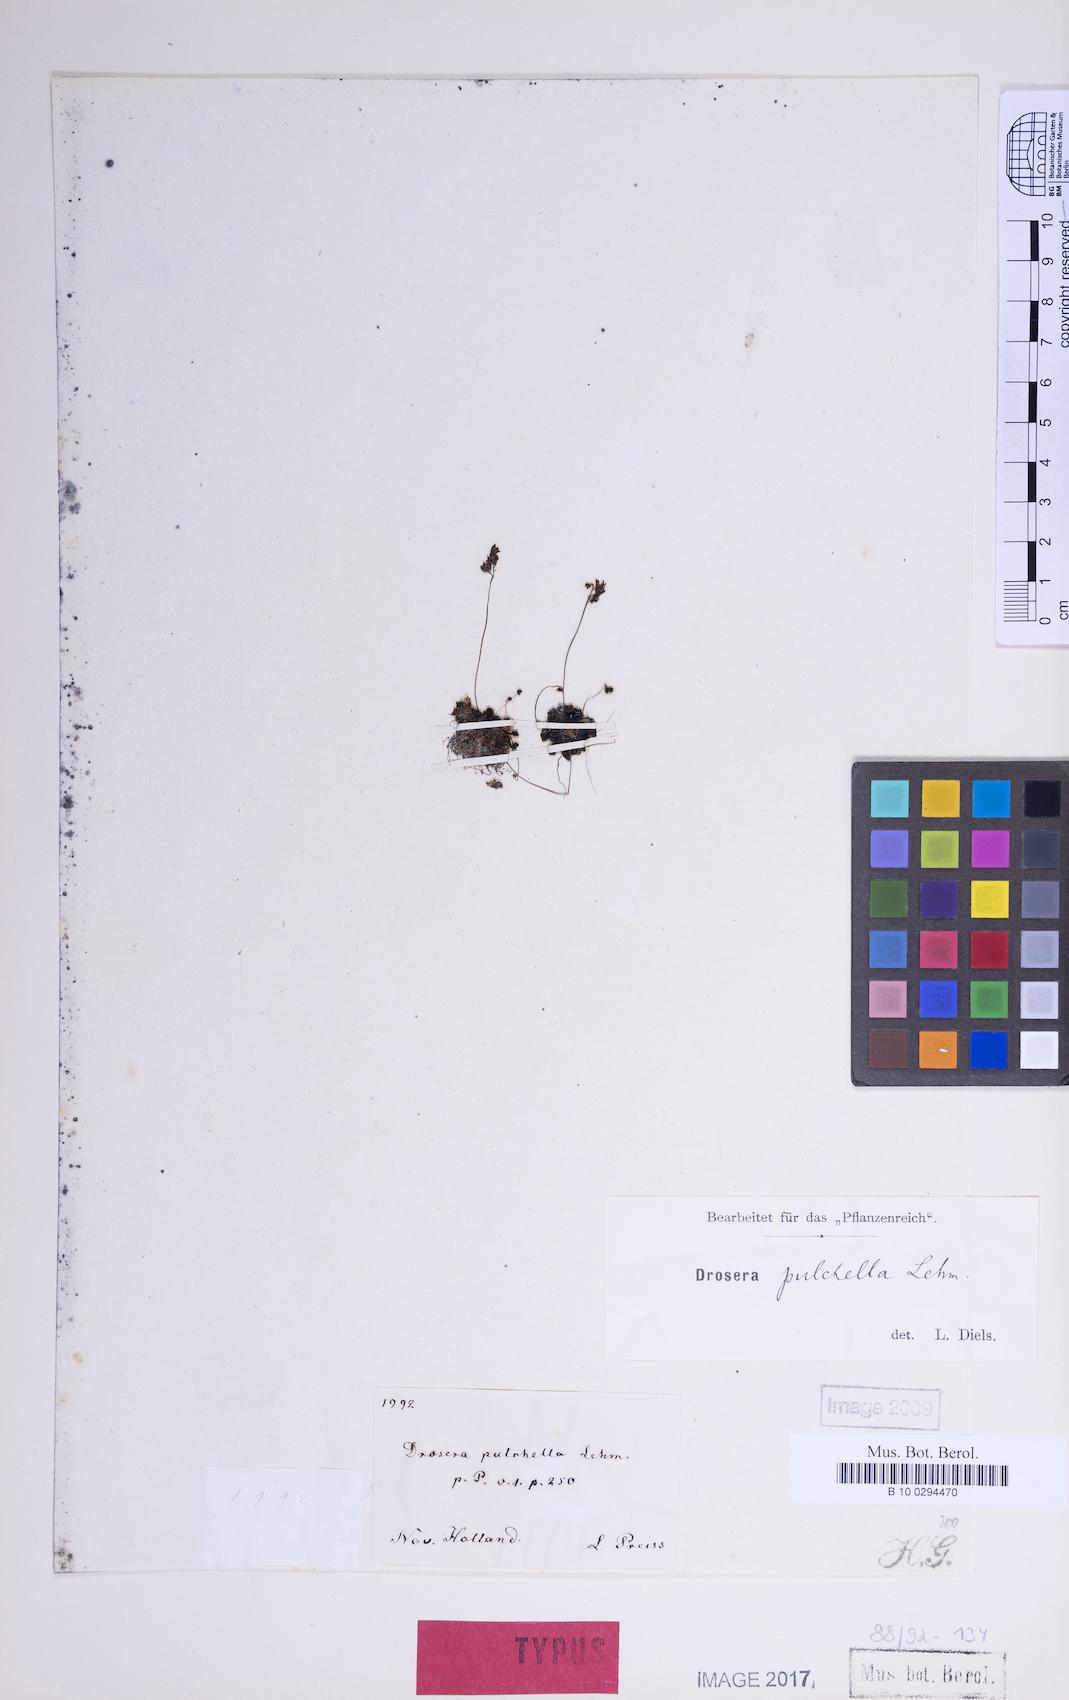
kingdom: Plantae
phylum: Tracheophyta
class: Magnoliopsida
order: Caryophyllales
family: Droseraceae
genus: Drosera
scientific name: Drosera pulchella
